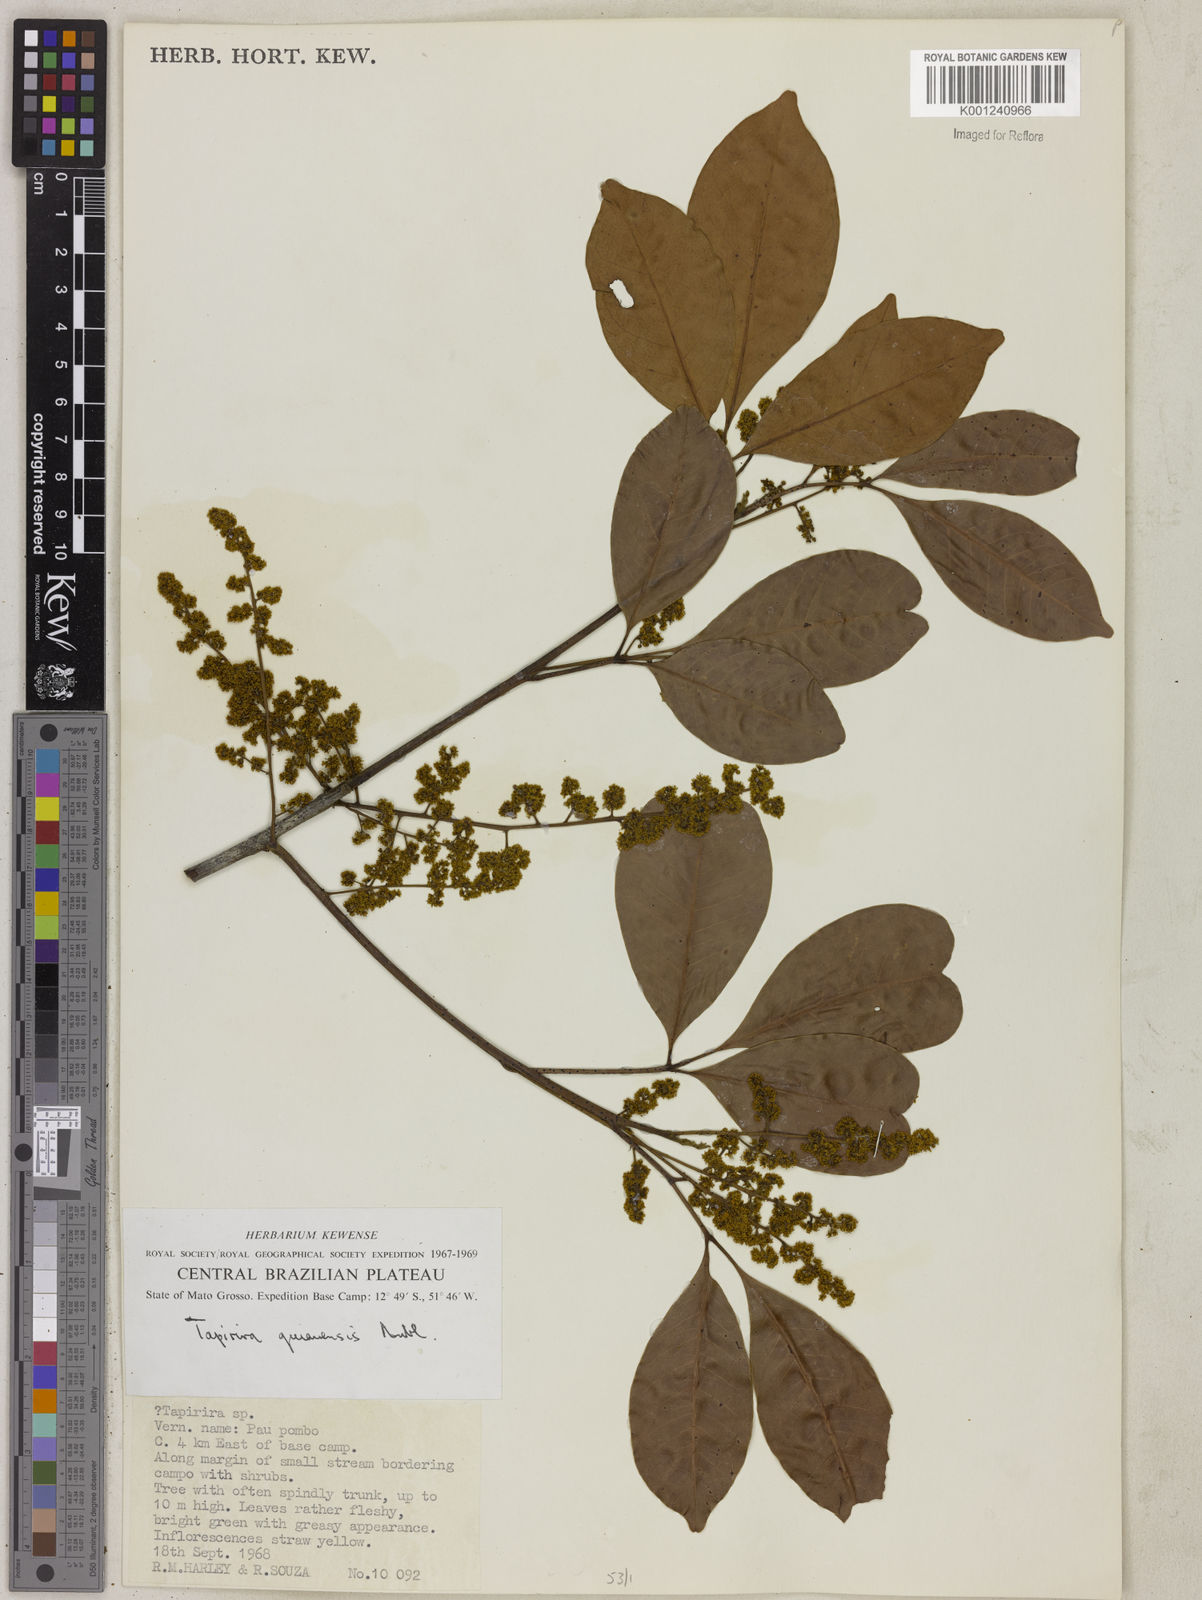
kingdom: Plantae
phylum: Tracheophyta
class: Magnoliopsida
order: Sapindales
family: Anacardiaceae
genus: Tapirira
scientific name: Tapirira guianensis
